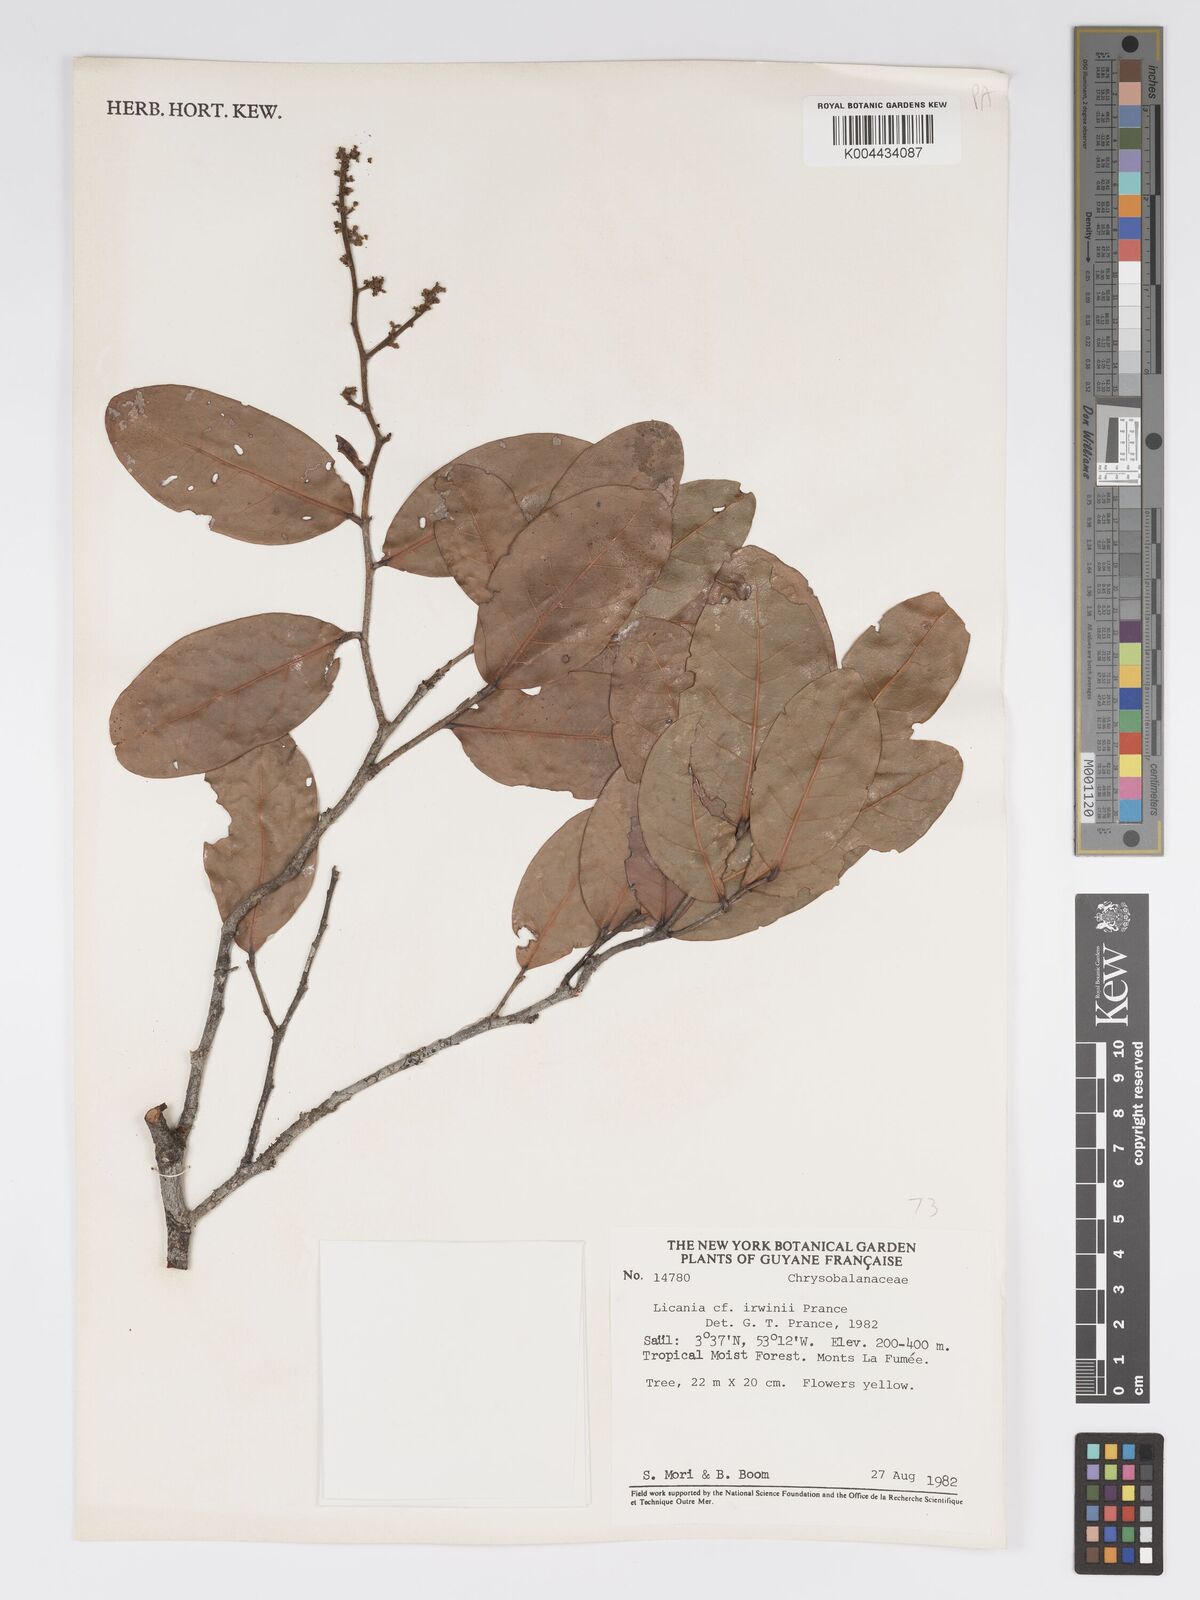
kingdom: Plantae
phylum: Tracheophyta
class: Magnoliopsida
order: Malpighiales
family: Chrysobalanaceae
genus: Licania
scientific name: Licania irwinii
